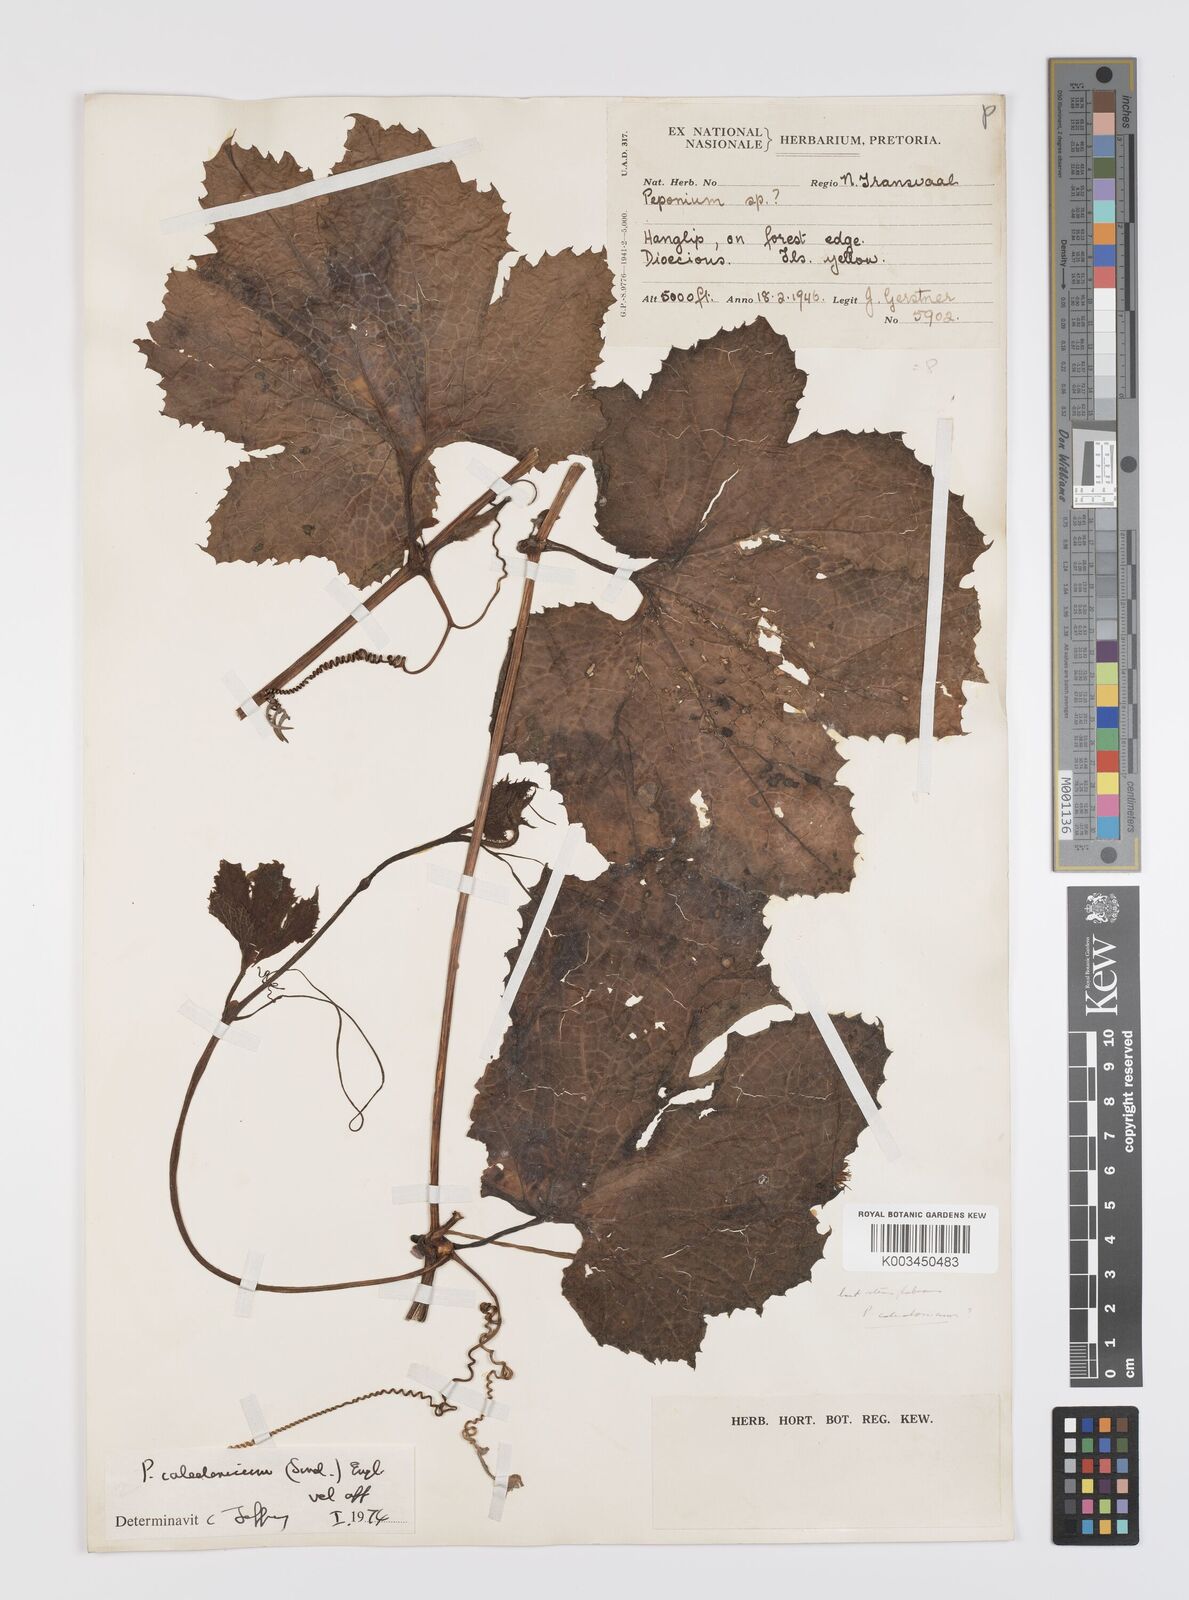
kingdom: Plantae
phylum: Tracheophyta
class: Magnoliopsida
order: Cucurbitales
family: Cucurbitaceae
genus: Peponium
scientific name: Peponium caledonicum
